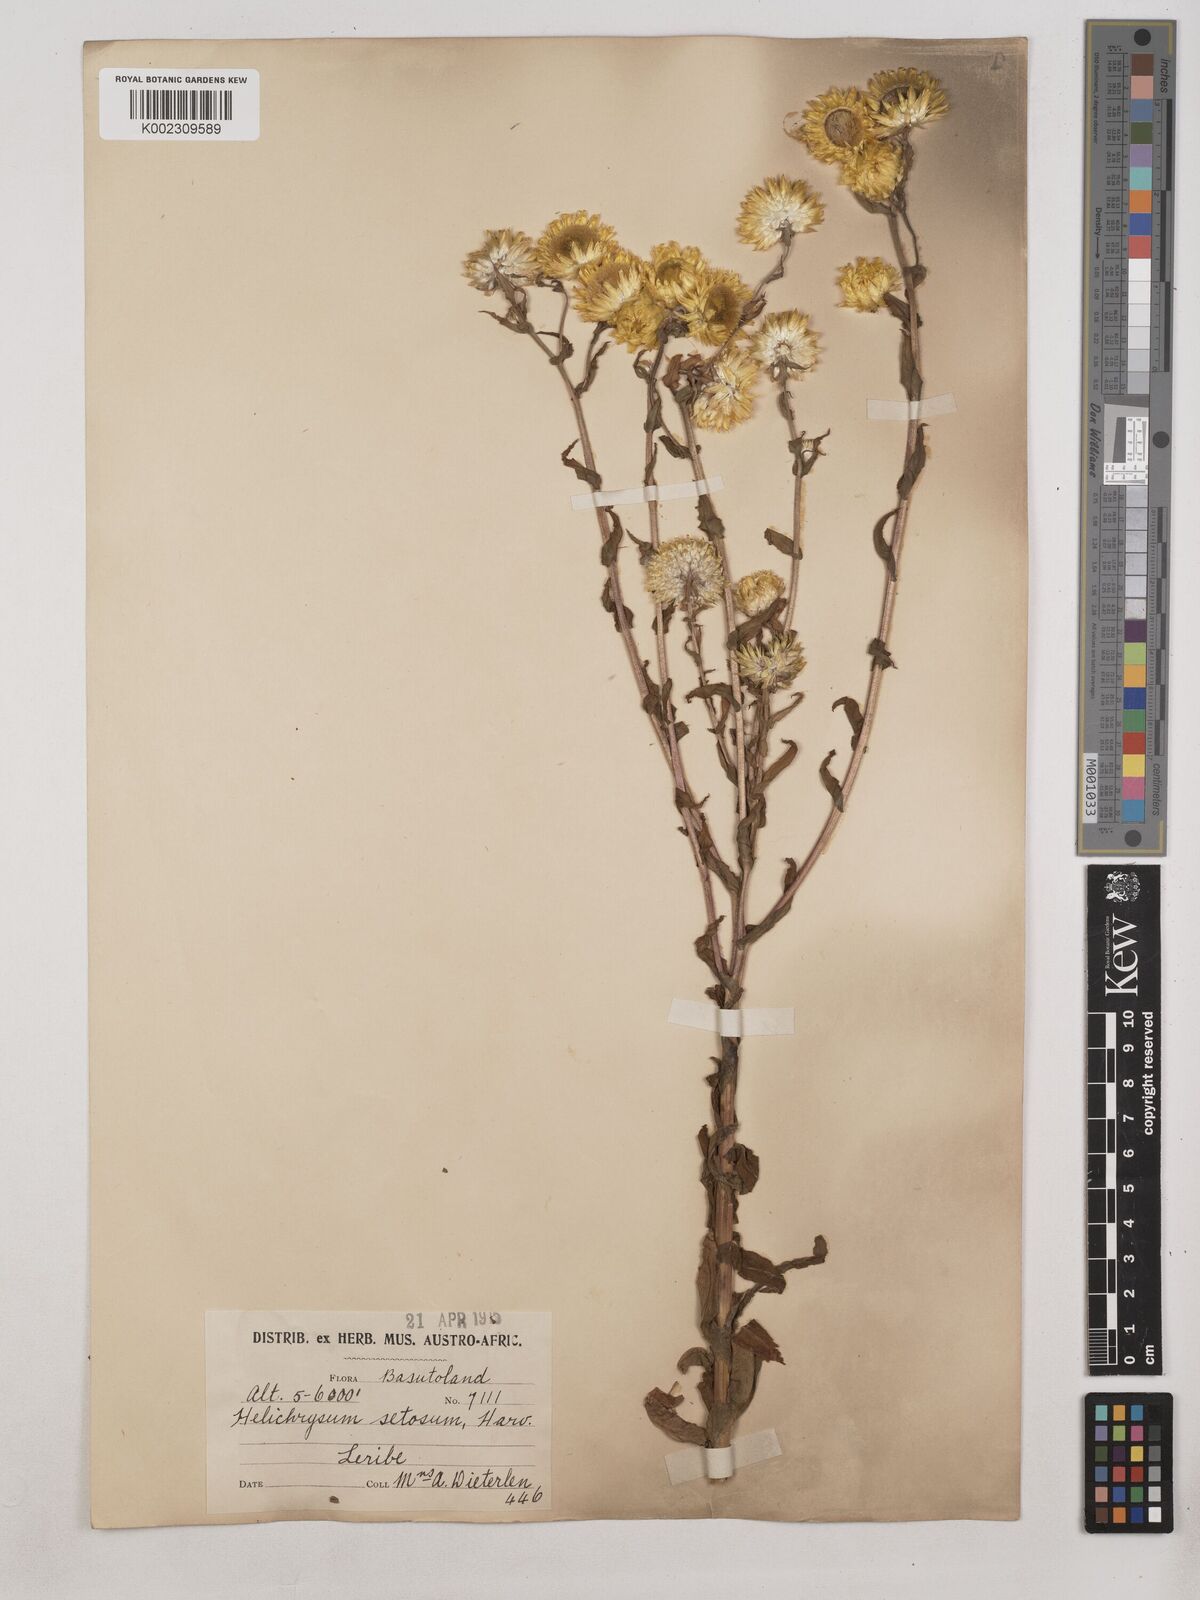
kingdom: Plantae
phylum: Tracheophyta
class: Magnoliopsida
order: Asterales
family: Asteraceae
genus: Helichrysum
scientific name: Helichrysum cooperi
